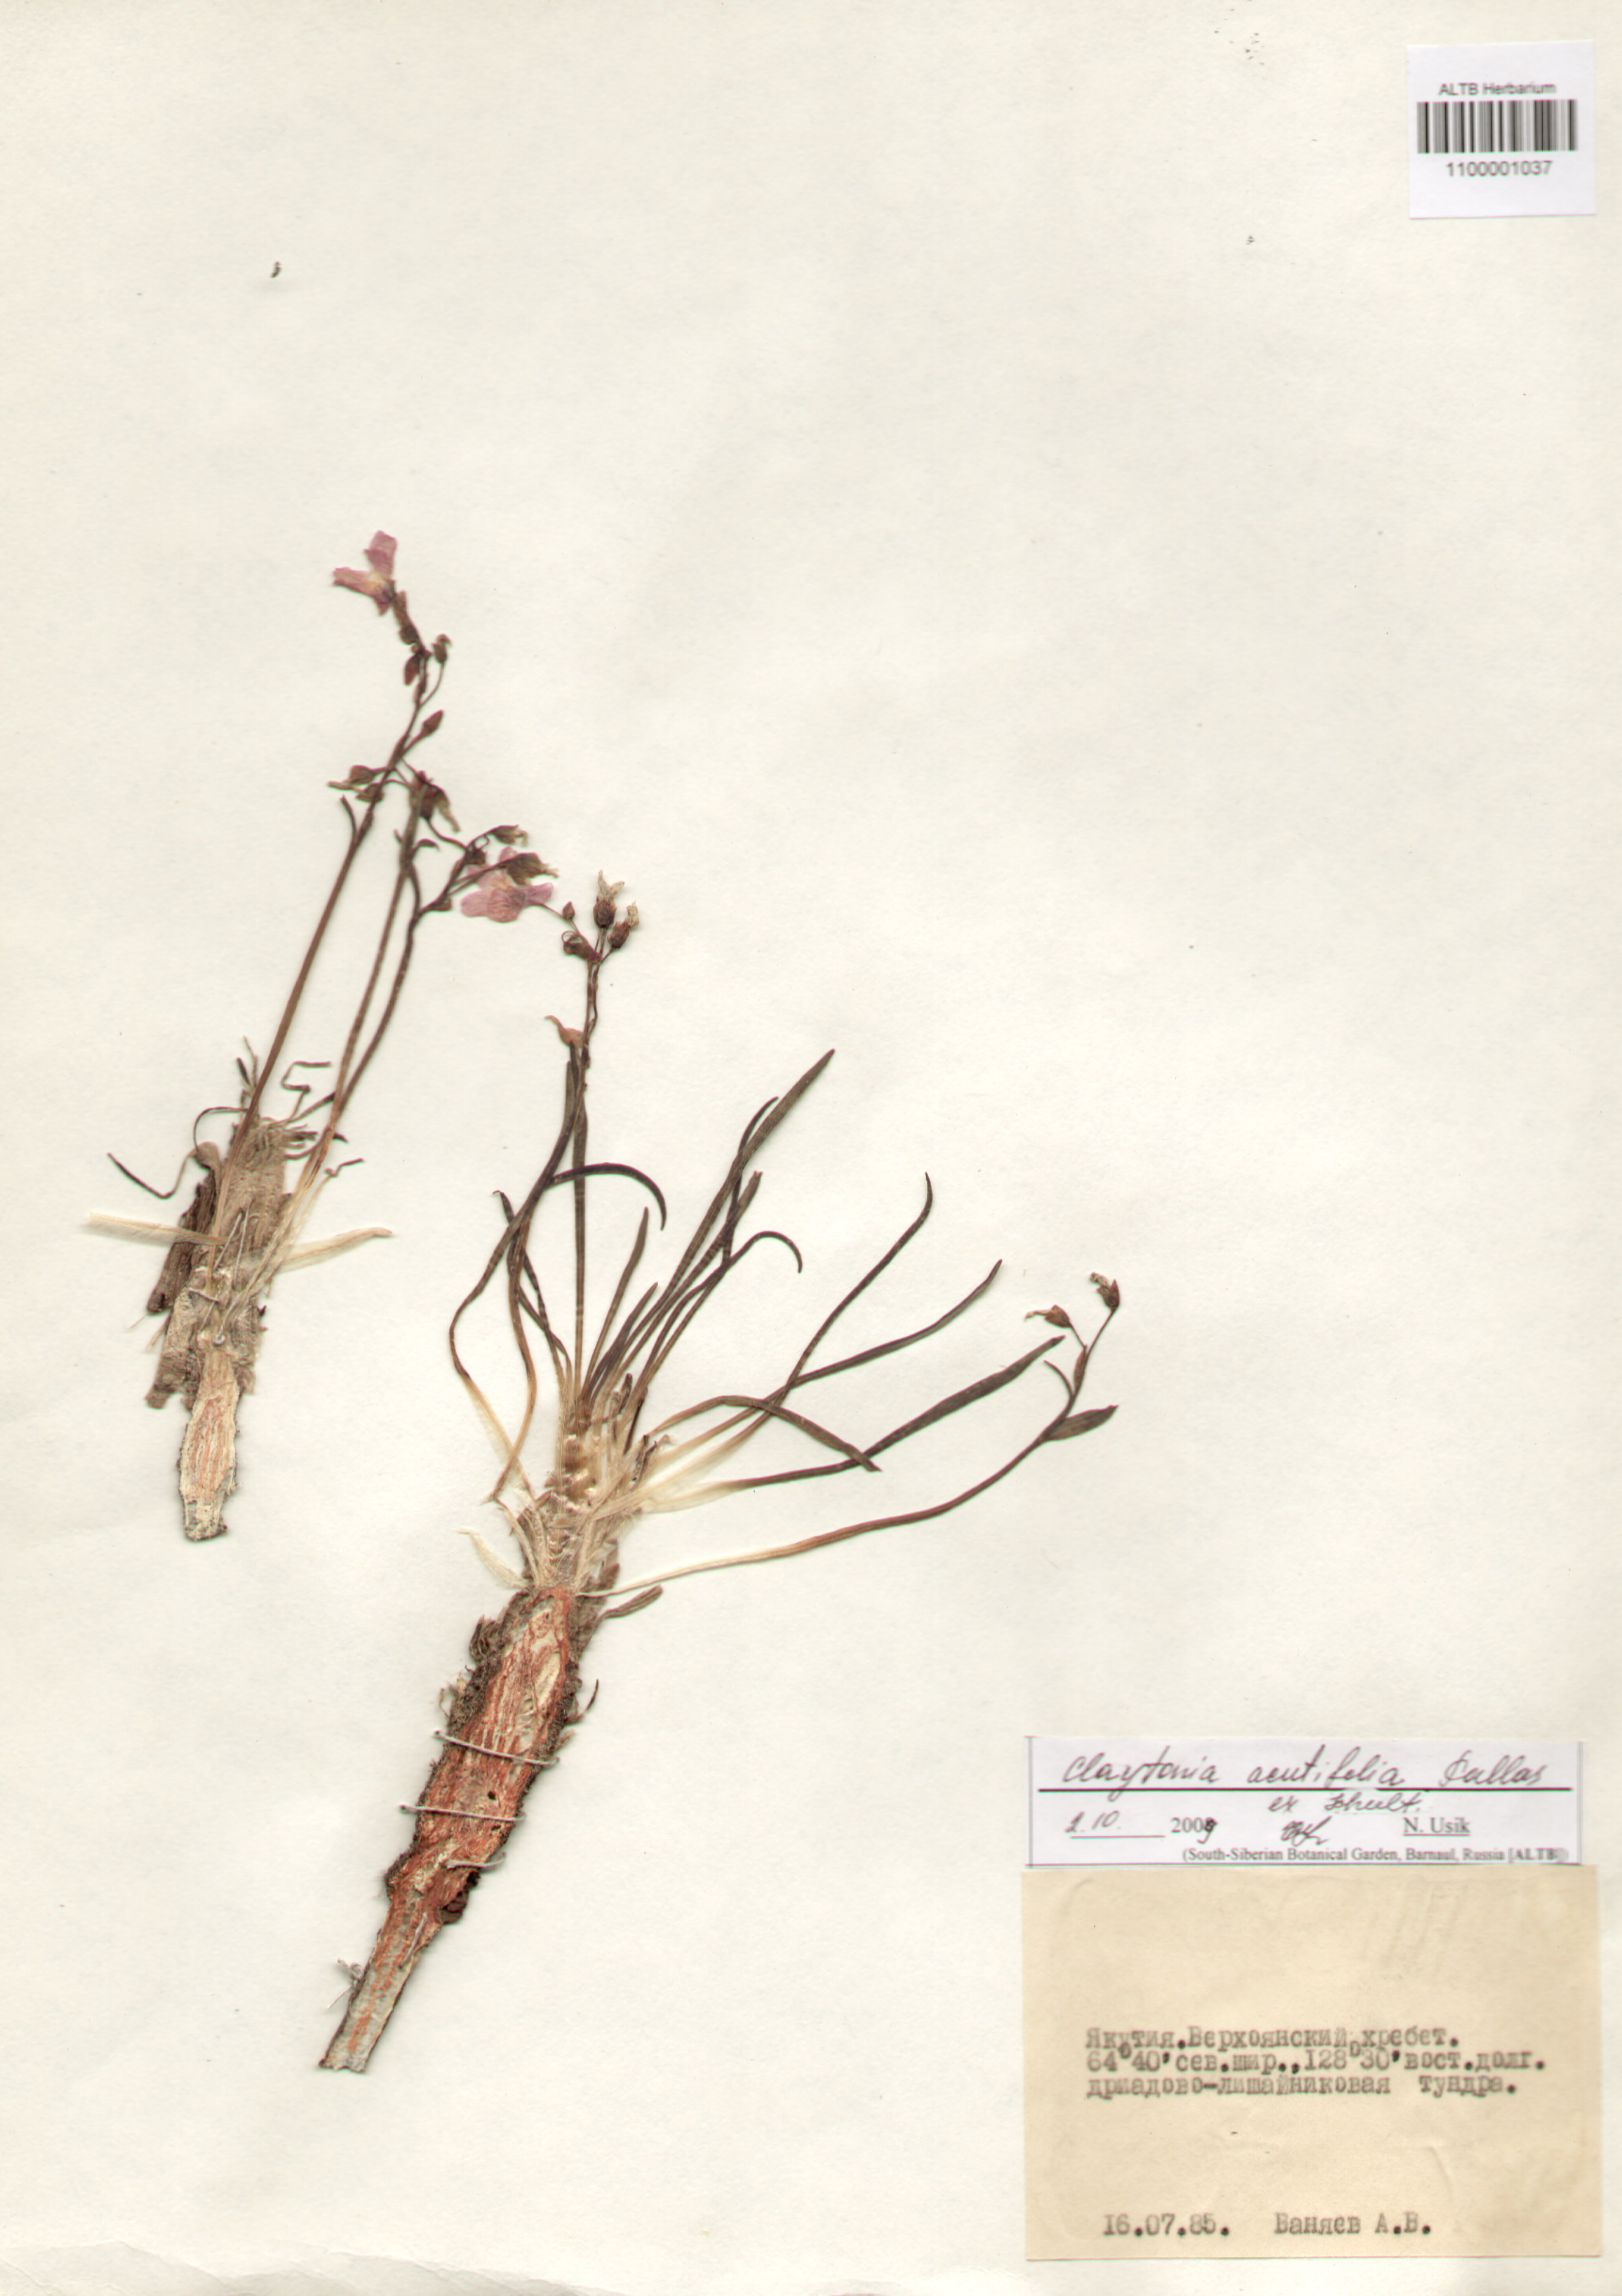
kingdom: Plantae
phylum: Tracheophyta
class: Magnoliopsida
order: Caryophyllales
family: Montiaceae
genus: Claytonia
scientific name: Claytonia acutifolia
